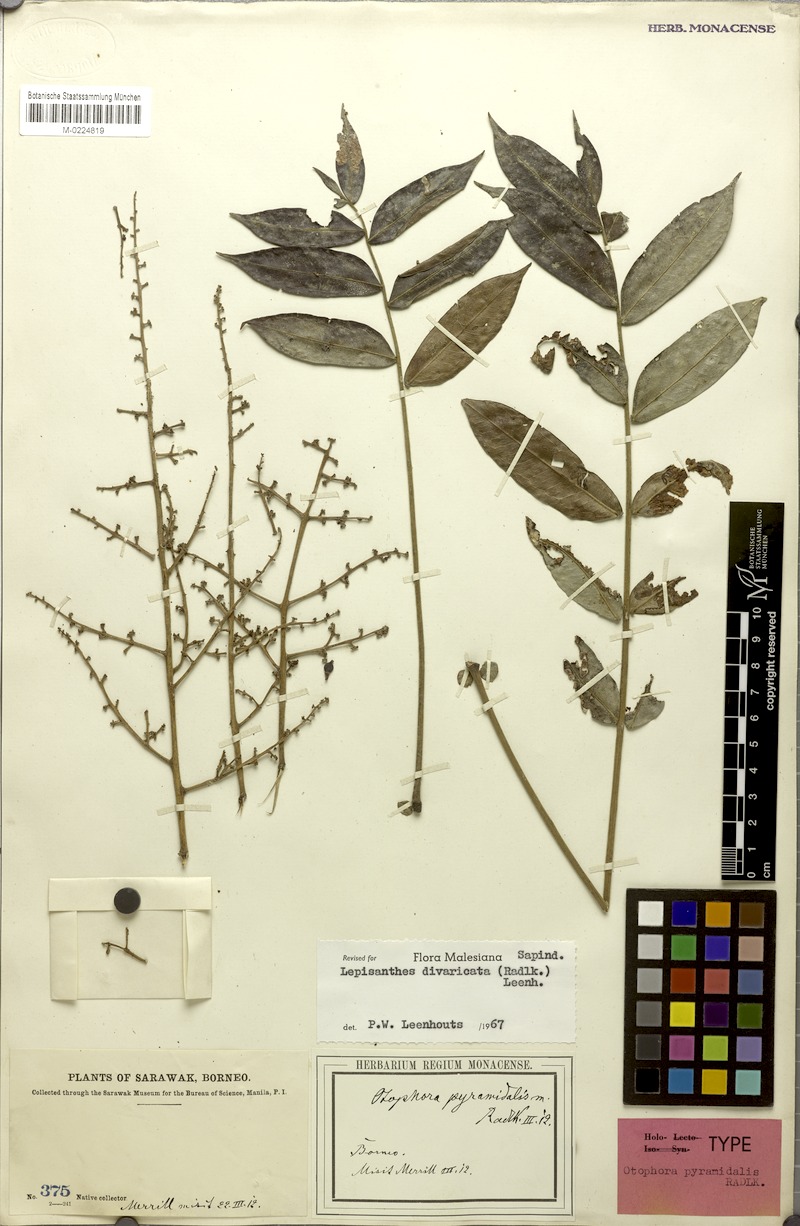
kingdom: Plantae
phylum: Tracheophyta
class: Magnoliopsida
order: Sapindales
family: Sapindaceae
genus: Lepisanthes
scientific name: Lepisanthes divaricata
